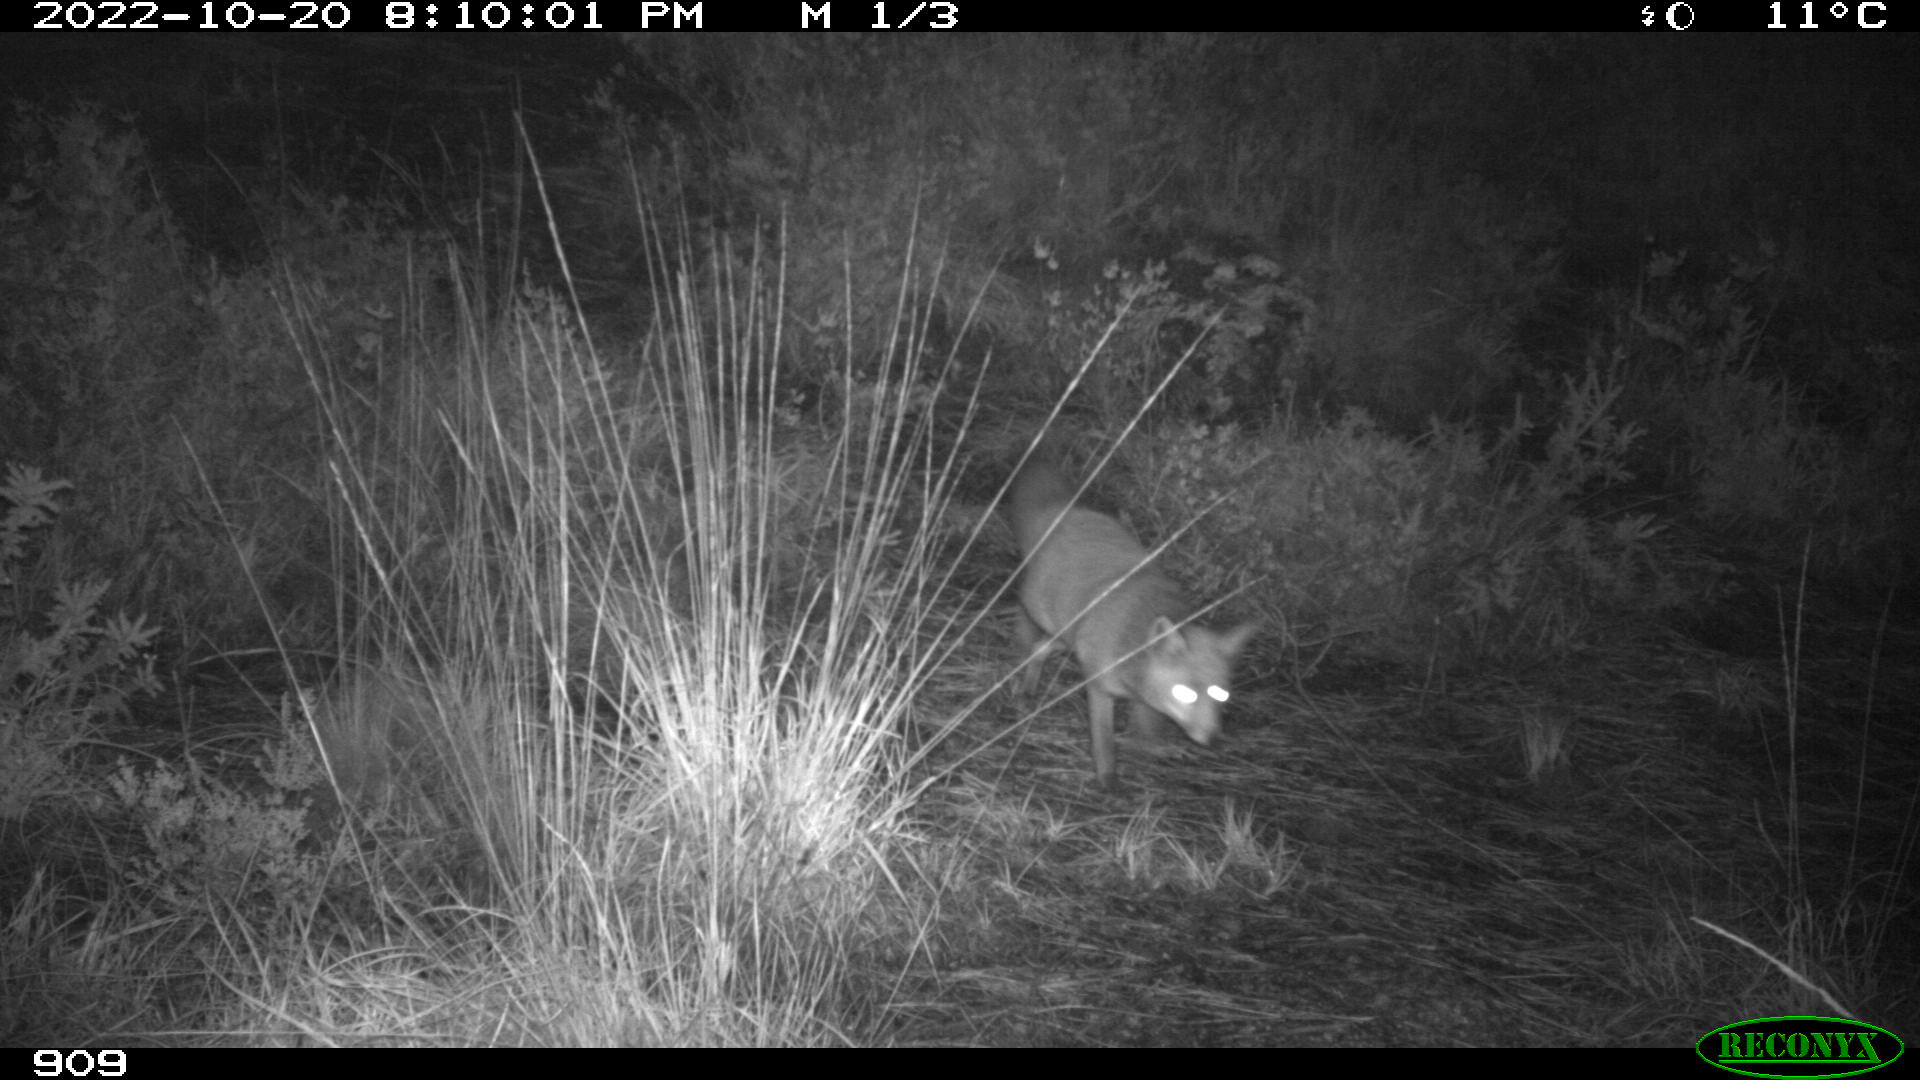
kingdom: Animalia
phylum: Chordata
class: Mammalia
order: Carnivora
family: Canidae
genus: Vulpes
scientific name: Vulpes vulpes
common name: Red fox
